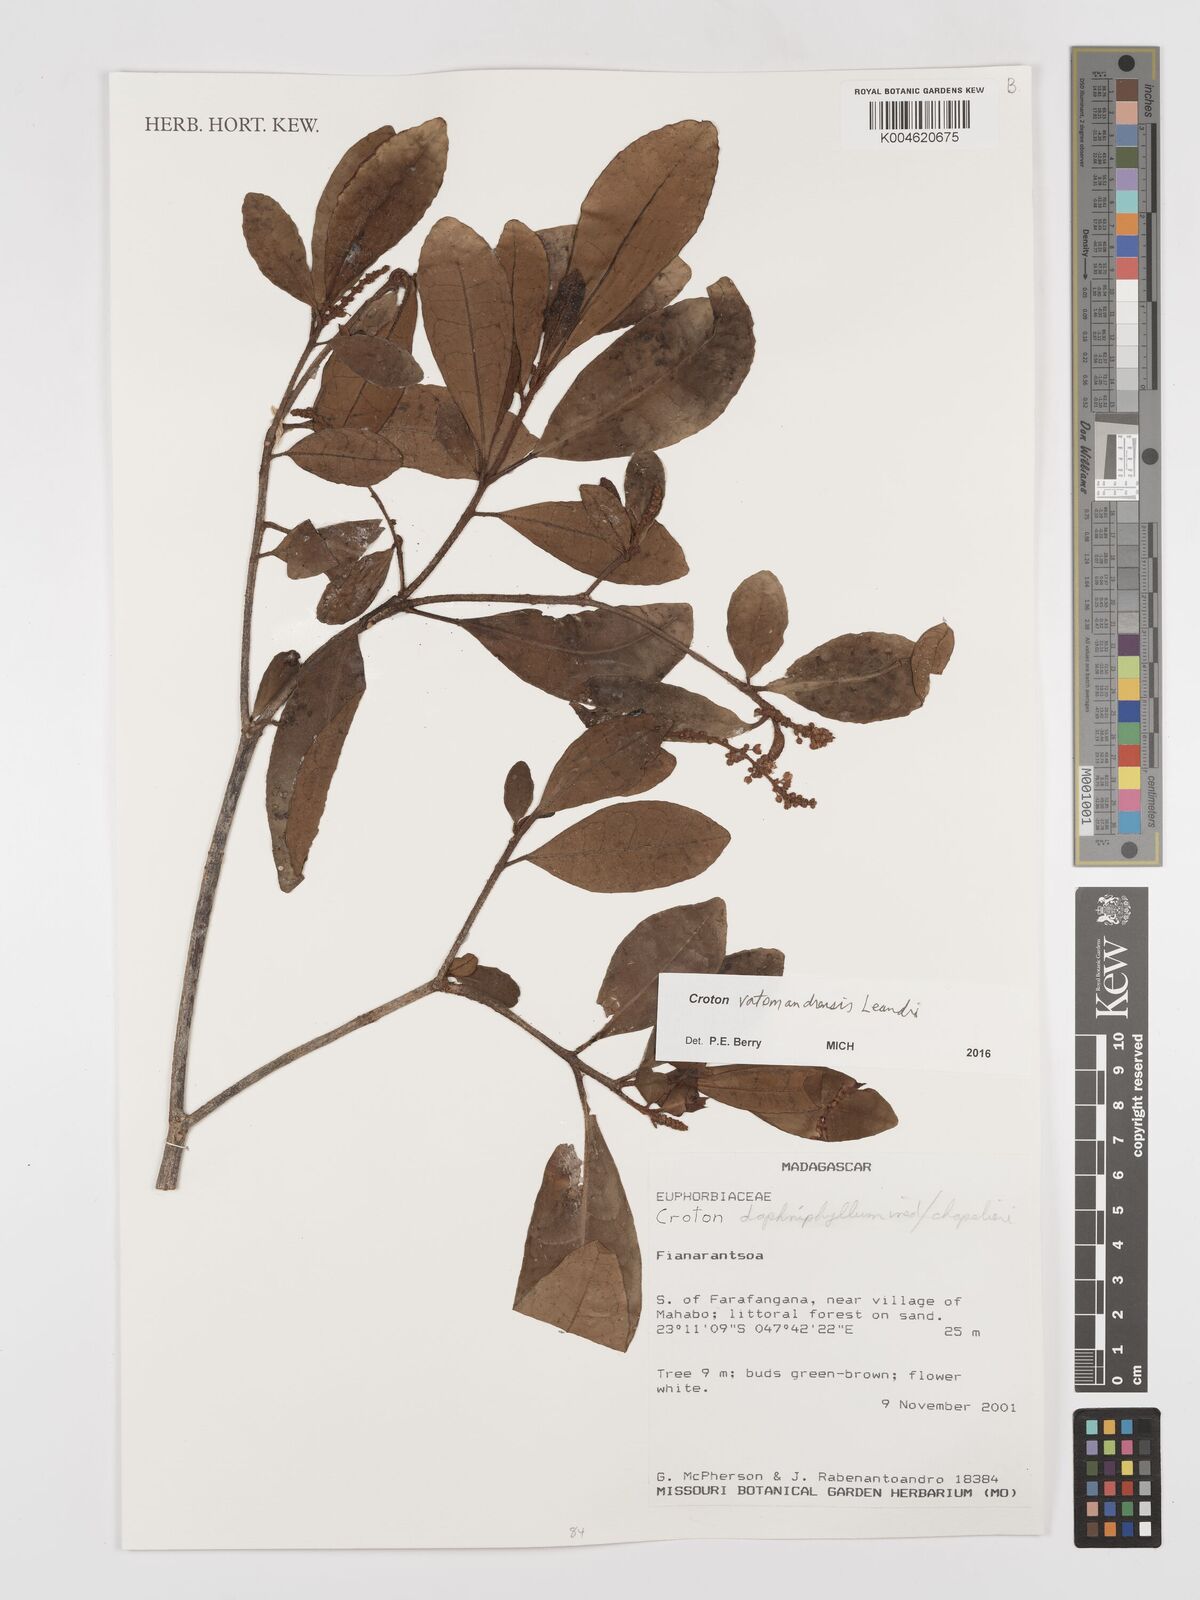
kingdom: Plantae
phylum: Tracheophyta
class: Magnoliopsida
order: Malpighiales
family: Euphorbiaceae
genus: Croton
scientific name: Croton vatomandrensis
